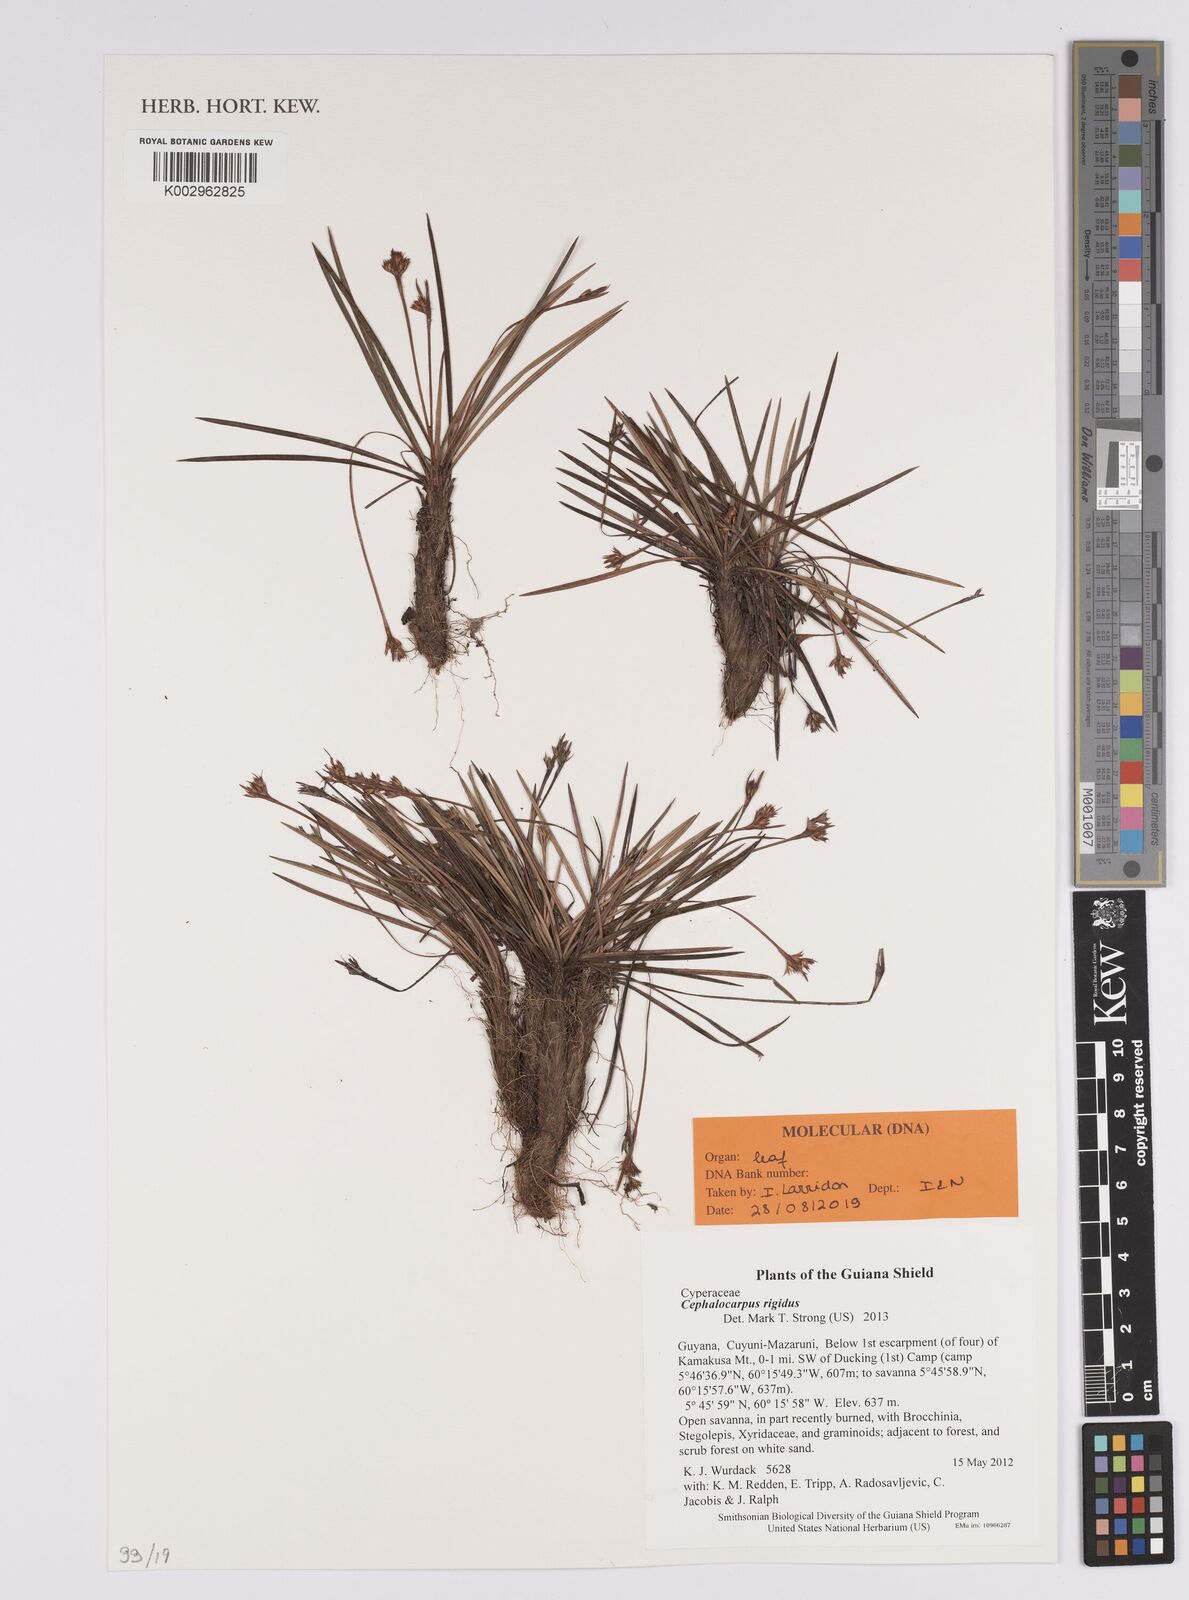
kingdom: Plantae
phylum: Tracheophyta
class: Liliopsida
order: Poales
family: Cyperaceae
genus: Cephalocarpus
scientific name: Cephalocarpus rigidus
